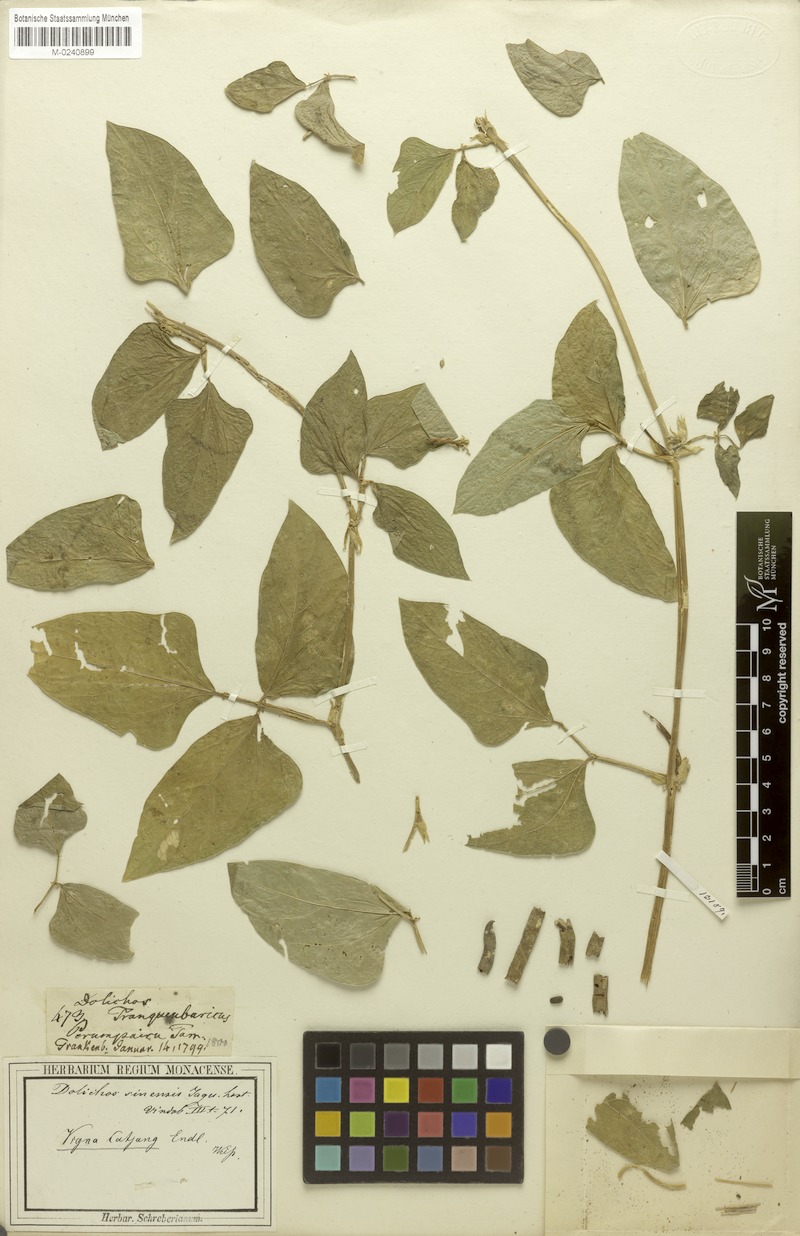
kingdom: Plantae
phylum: Tracheophyta
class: Magnoliopsida
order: Fabales
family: Fabaceae
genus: Vigna
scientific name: Vigna unguiculata
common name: Cowpea
